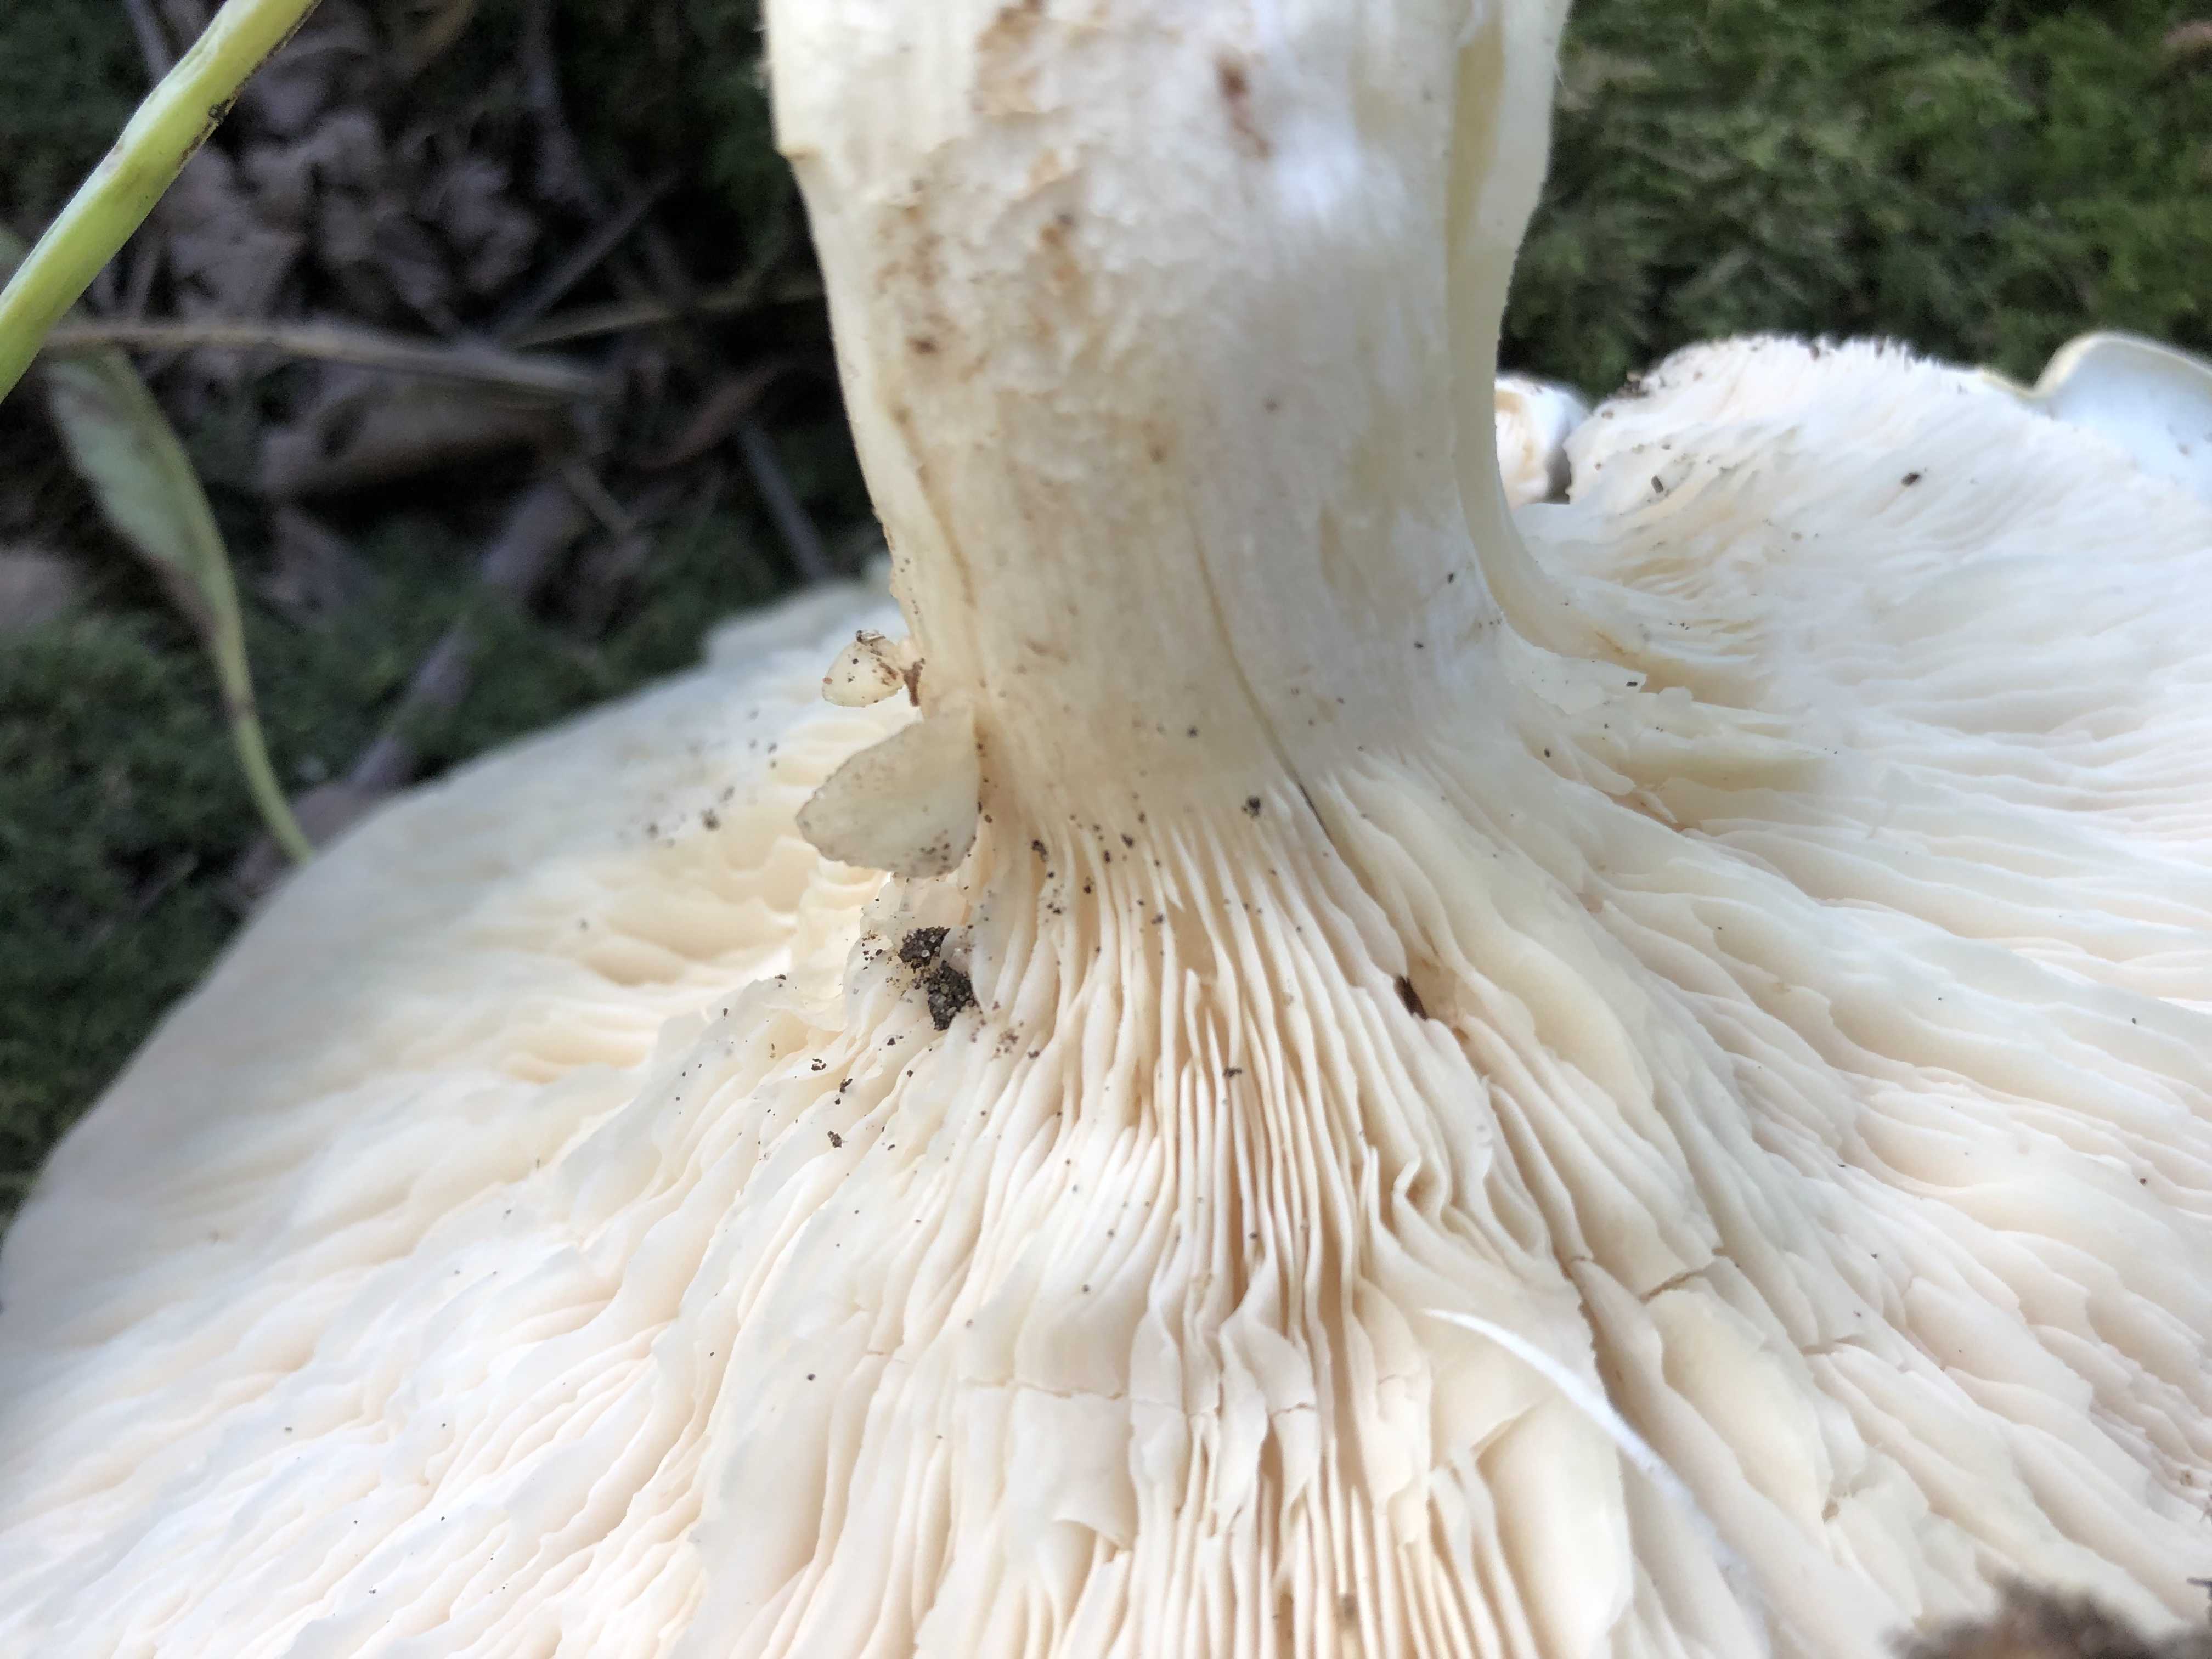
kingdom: Fungi
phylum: Basidiomycota
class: Agaricomycetes
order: Agaricales
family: Tricholomataceae
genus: Aspropaxillus
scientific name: Aspropaxillus giganteus
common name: kæmpe-tragtridderhat
